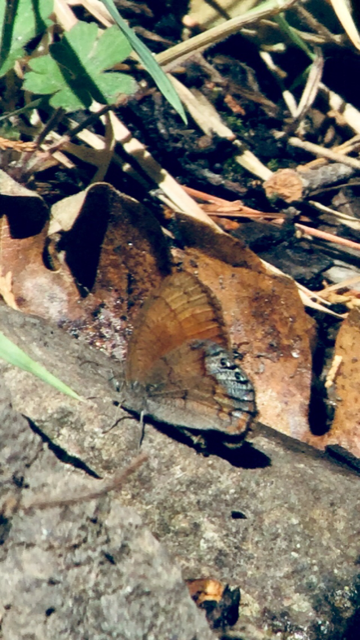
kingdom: Animalia
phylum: Arthropoda
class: Insecta
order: Lepidoptera
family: Nymphalidae
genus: Euptychia
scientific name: Euptychia Cyllopsis pertepida
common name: Canyonland Satyr
